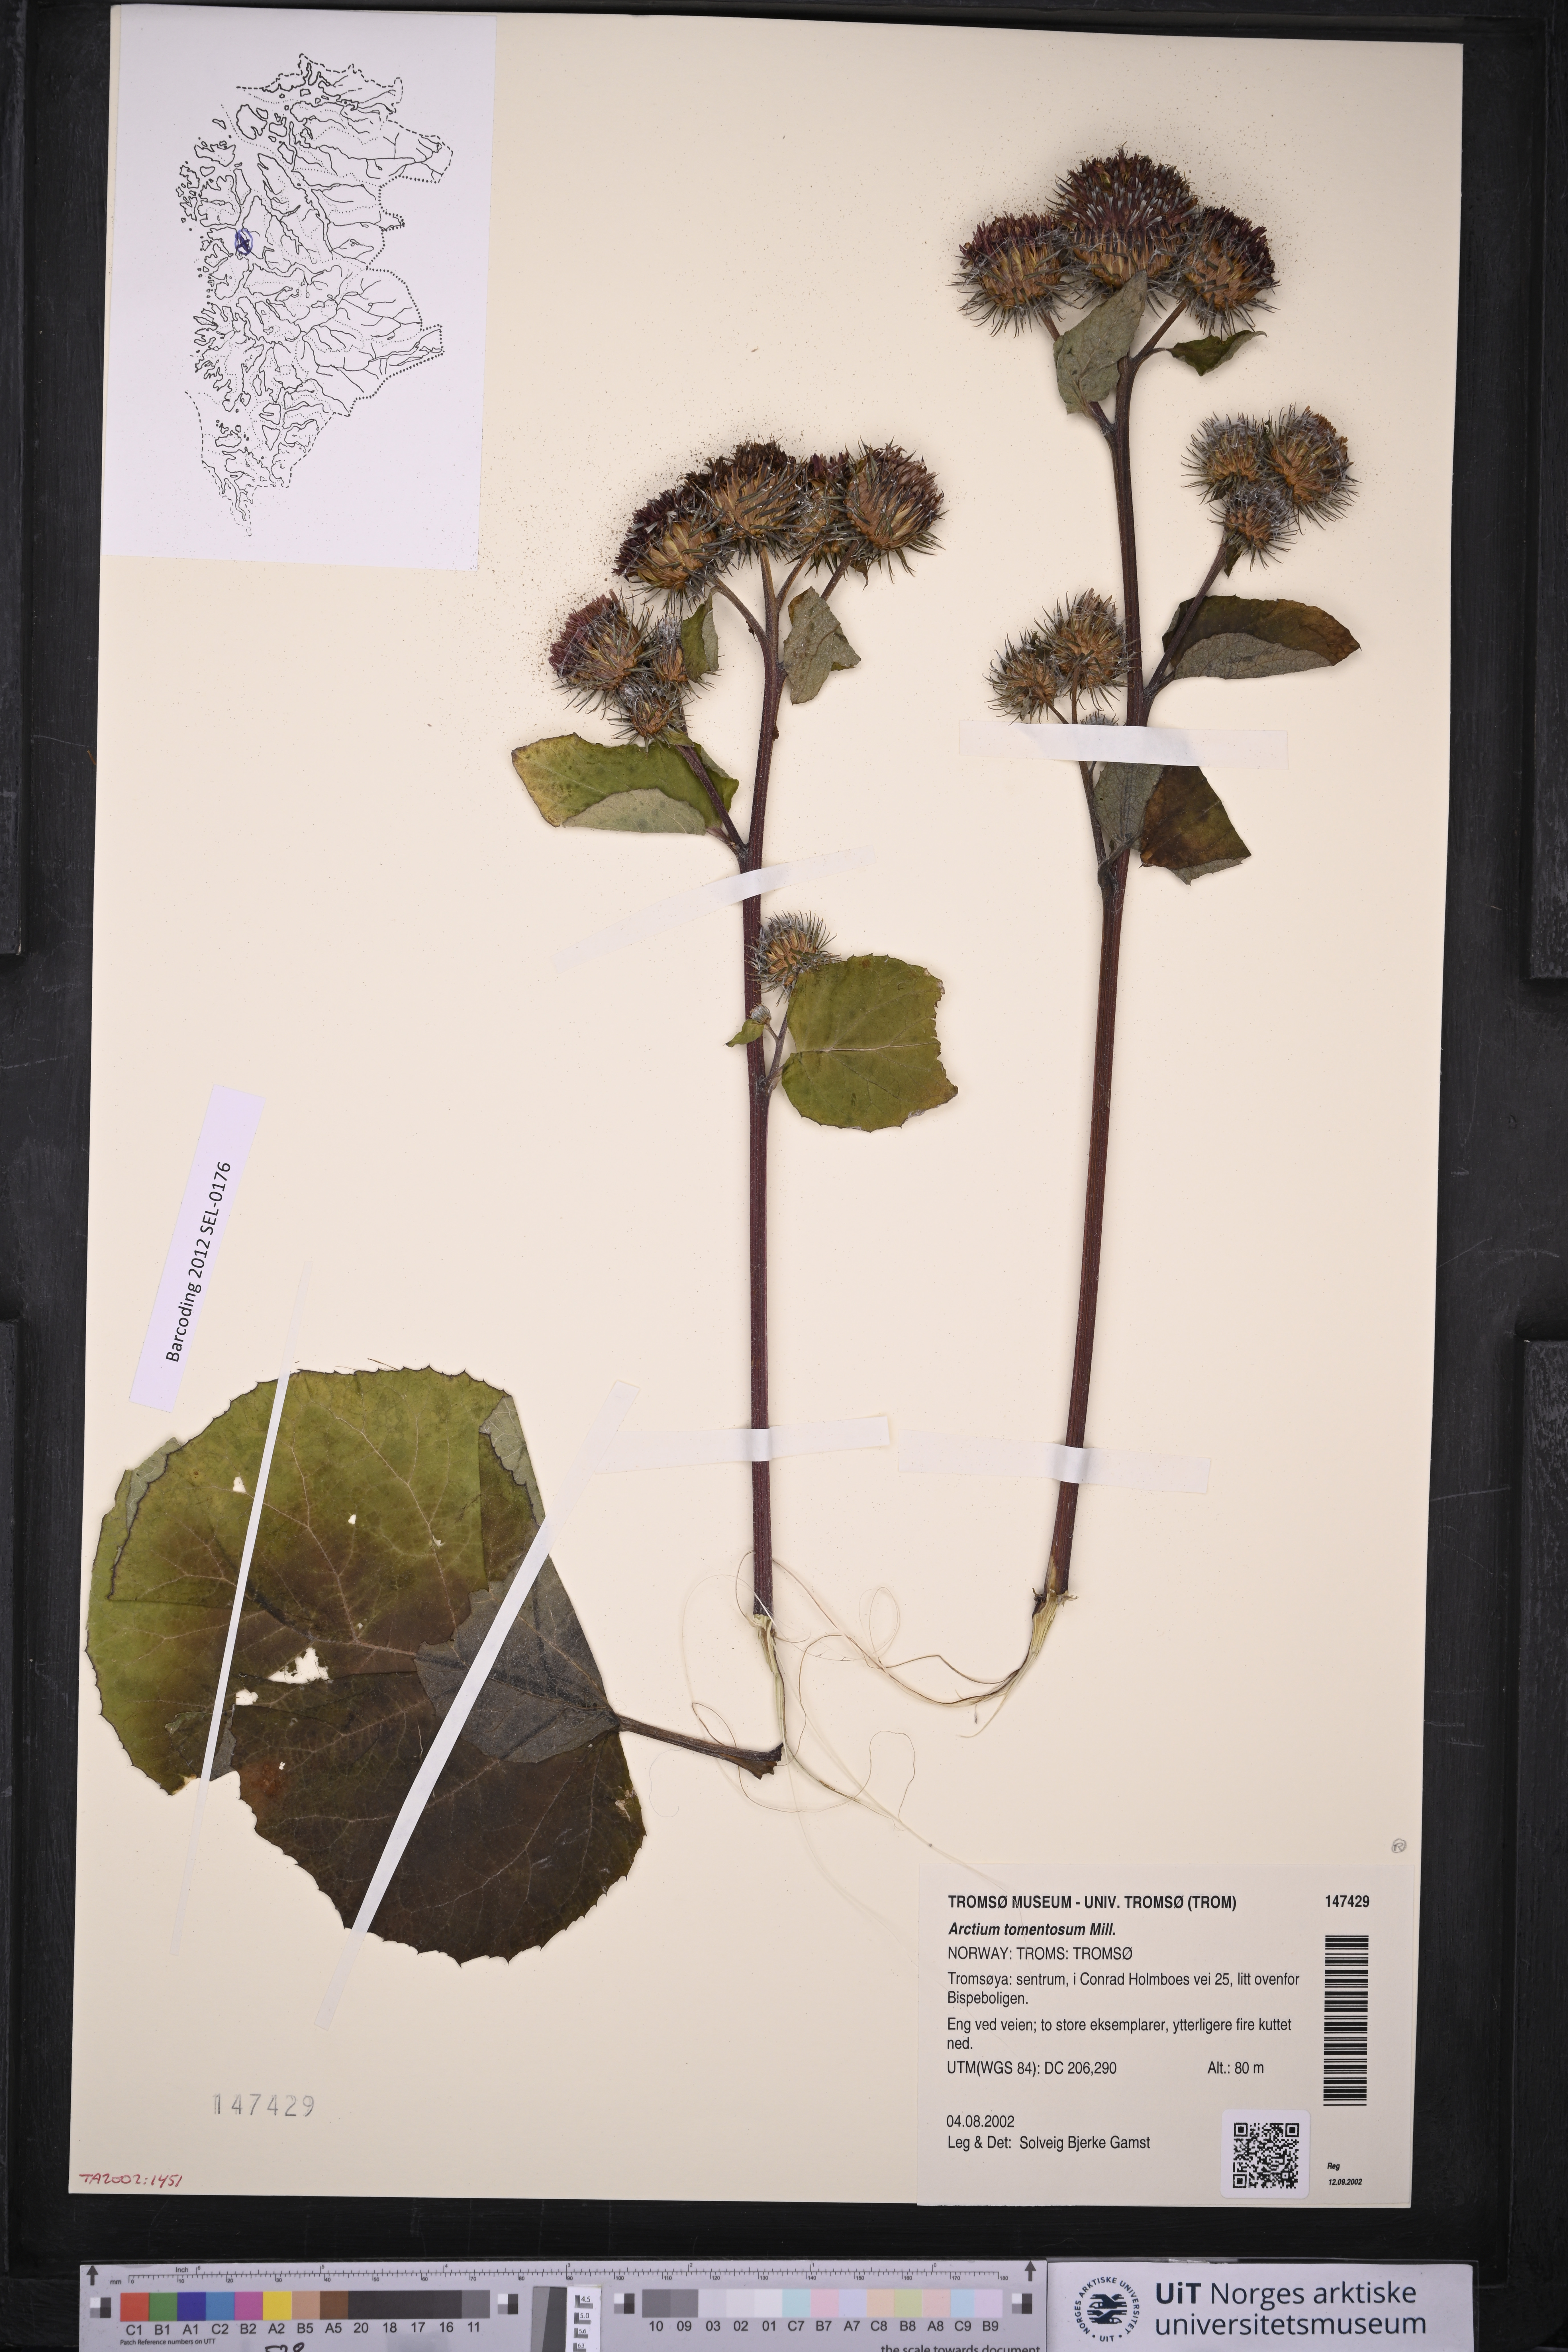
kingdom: Plantae
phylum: Tracheophyta
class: Magnoliopsida
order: Asterales
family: Asteraceae
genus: Arctium
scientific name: Arctium tomentosum
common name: Woolly burdock
